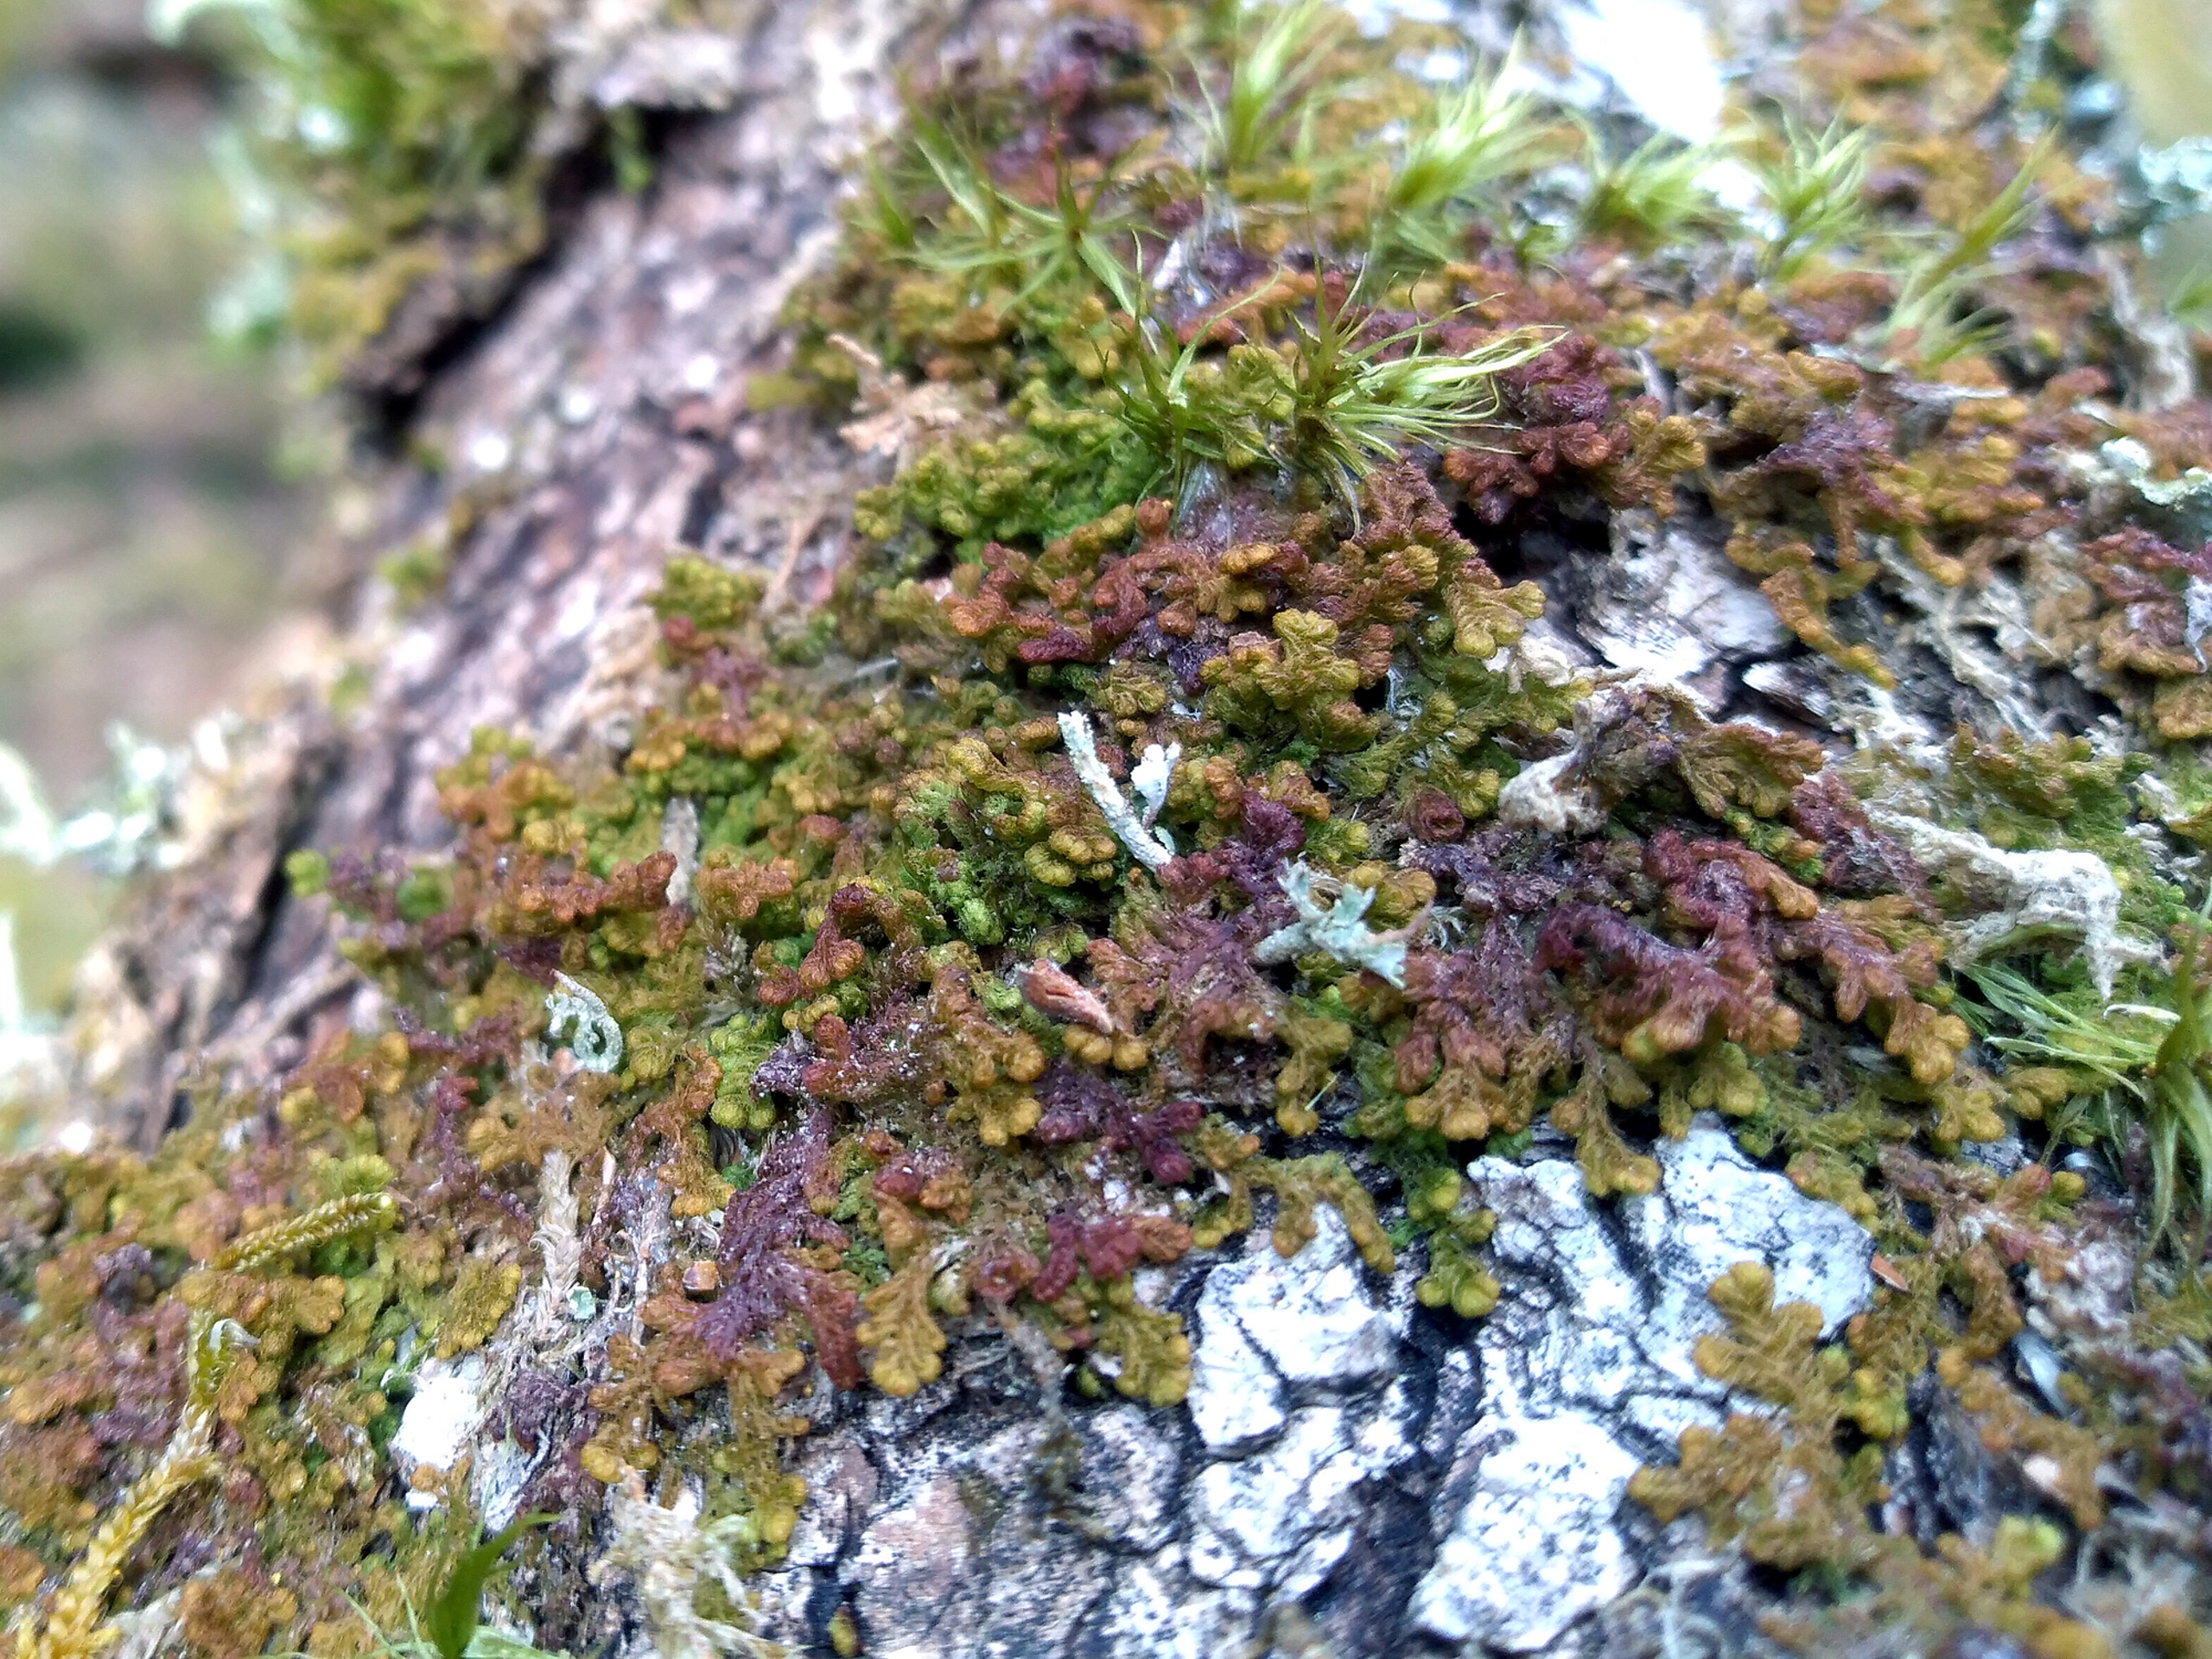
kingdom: Plantae
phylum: Marchantiophyta
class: Jungermanniopsida
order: Ptilidiales
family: Ptilidiaceae
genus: Ptilidium
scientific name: Ptilidium pulcherrimum
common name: Stub-frynsemos
